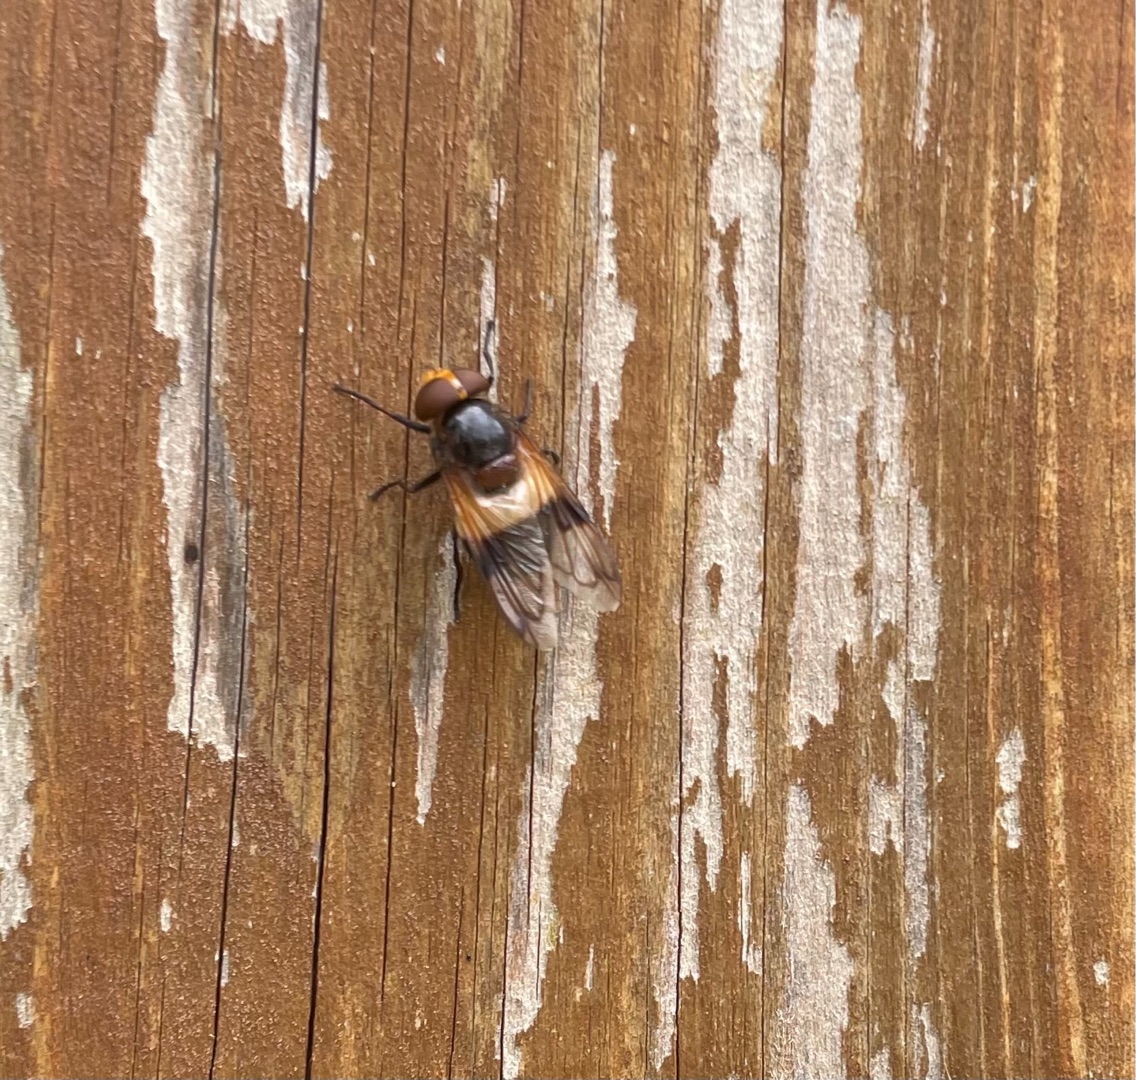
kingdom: Animalia
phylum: Arthropoda
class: Insecta
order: Diptera
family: Syrphidae
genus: Volucella
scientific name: Volucella pellucens
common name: Hvidbåndet humlesvirreflue
